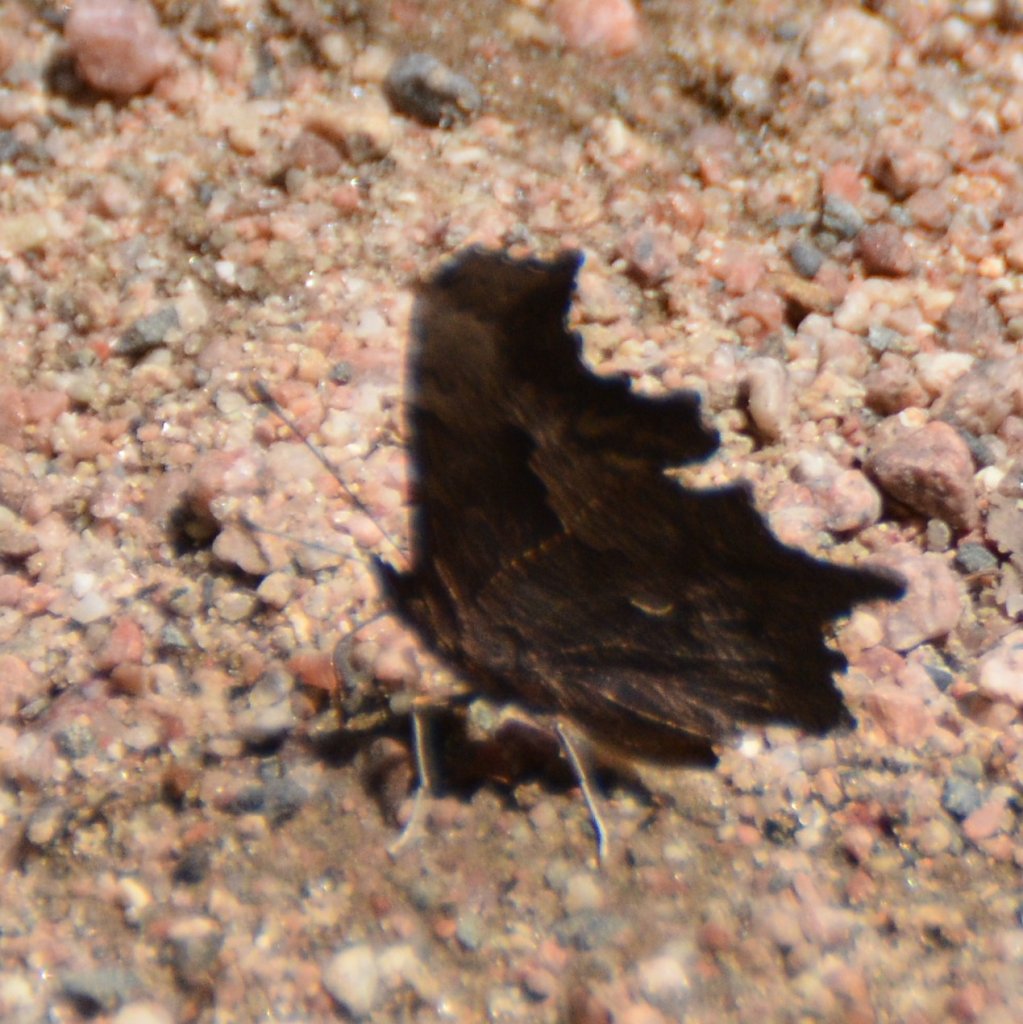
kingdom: Animalia
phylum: Arthropoda
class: Insecta
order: Lepidoptera
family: Nymphalidae
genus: Polygonia
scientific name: Polygonia progne
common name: Gray Comma
